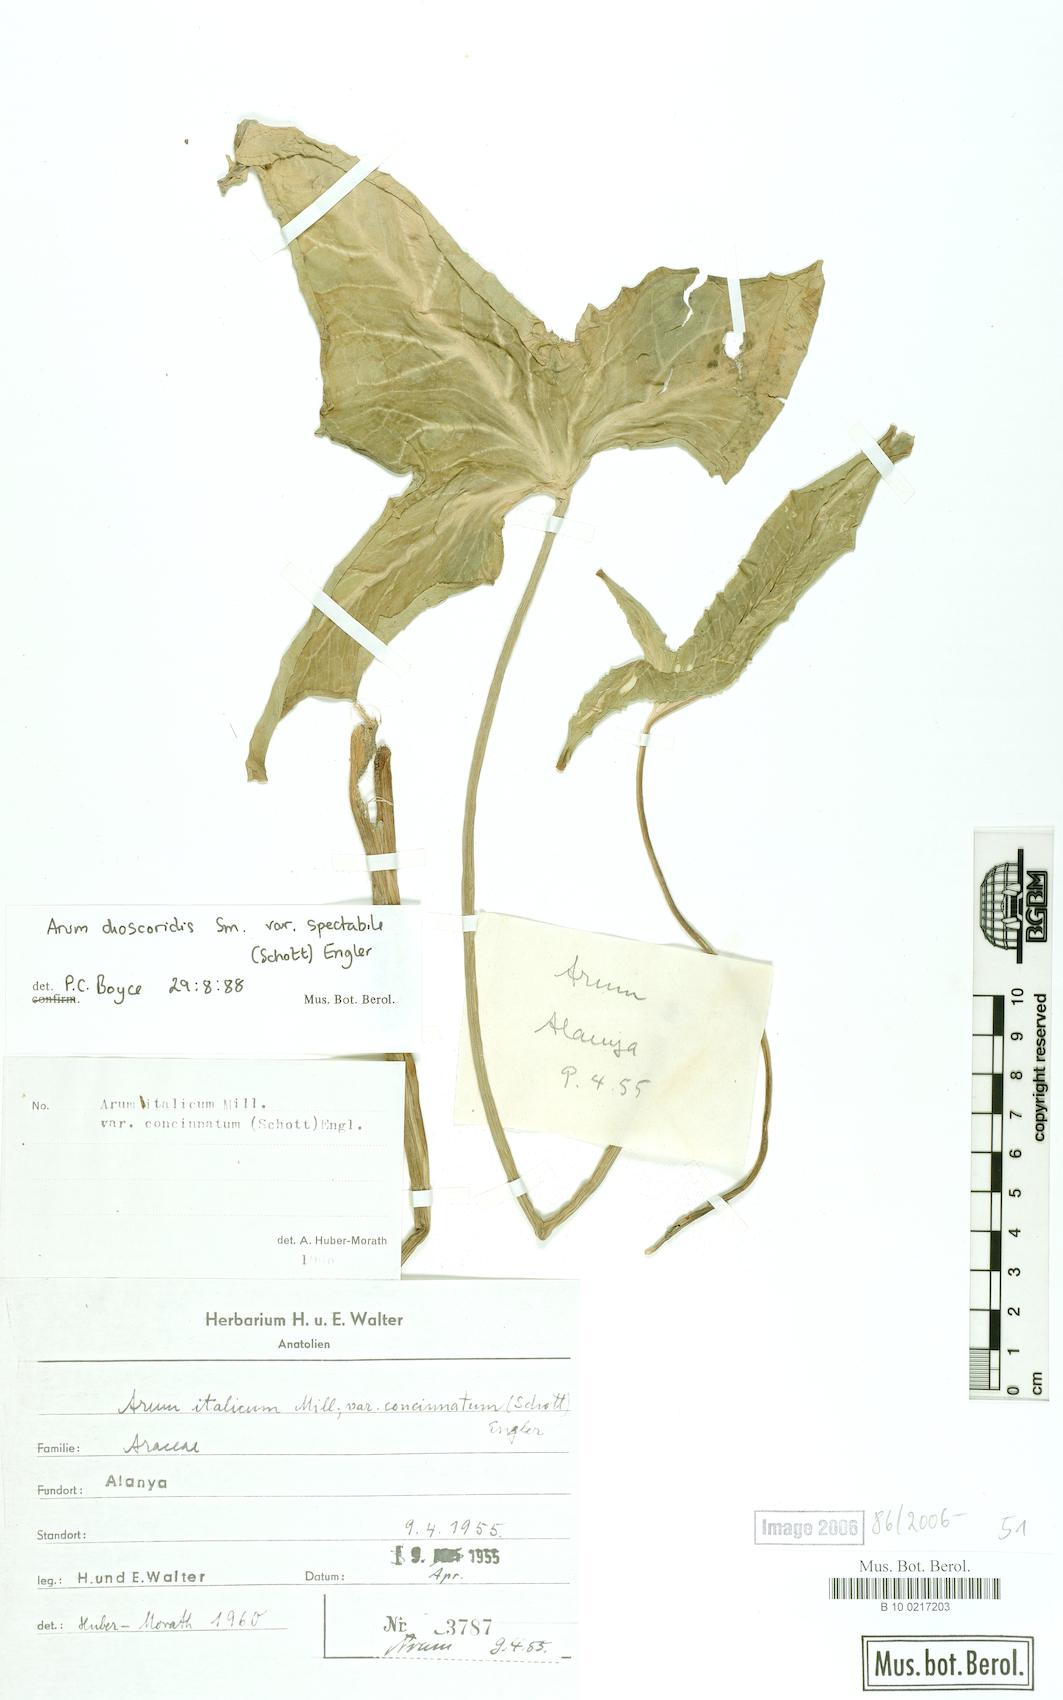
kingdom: Plantae
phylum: Tracheophyta
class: Liliopsida
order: Alismatales
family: Araceae
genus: Arum
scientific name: Arum dioscoridis
